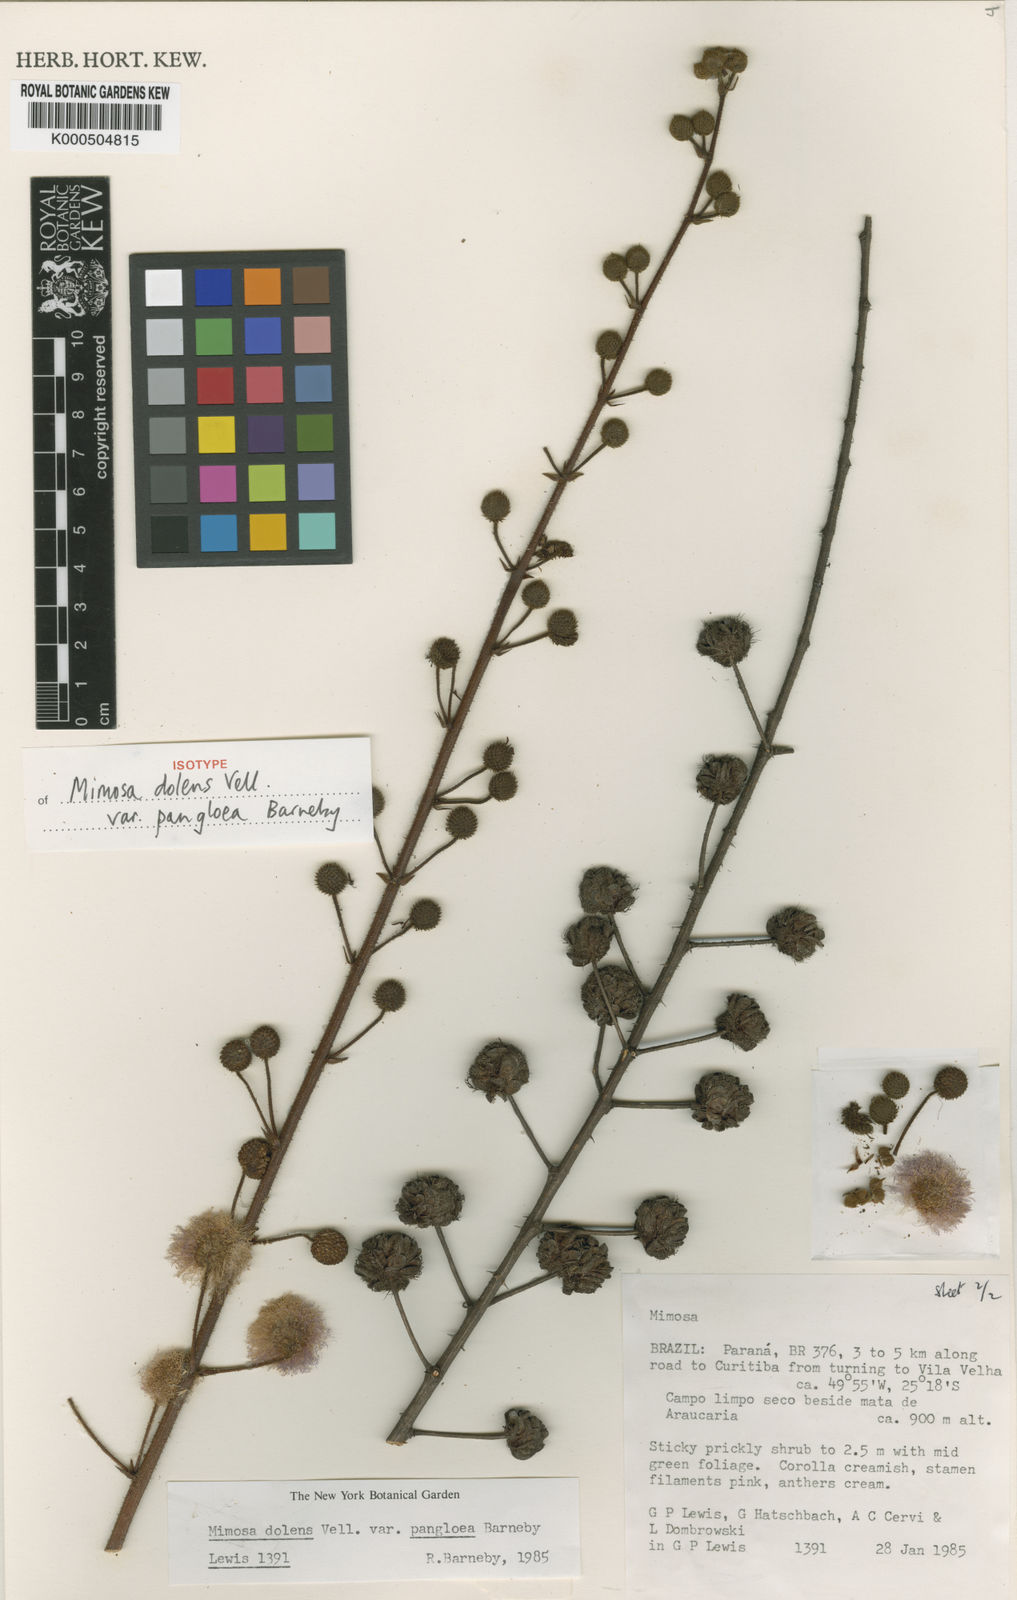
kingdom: Plantae
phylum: Tracheophyta
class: Magnoliopsida
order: Fabales
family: Fabaceae
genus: Mimosa
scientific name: Mimosa dolens
